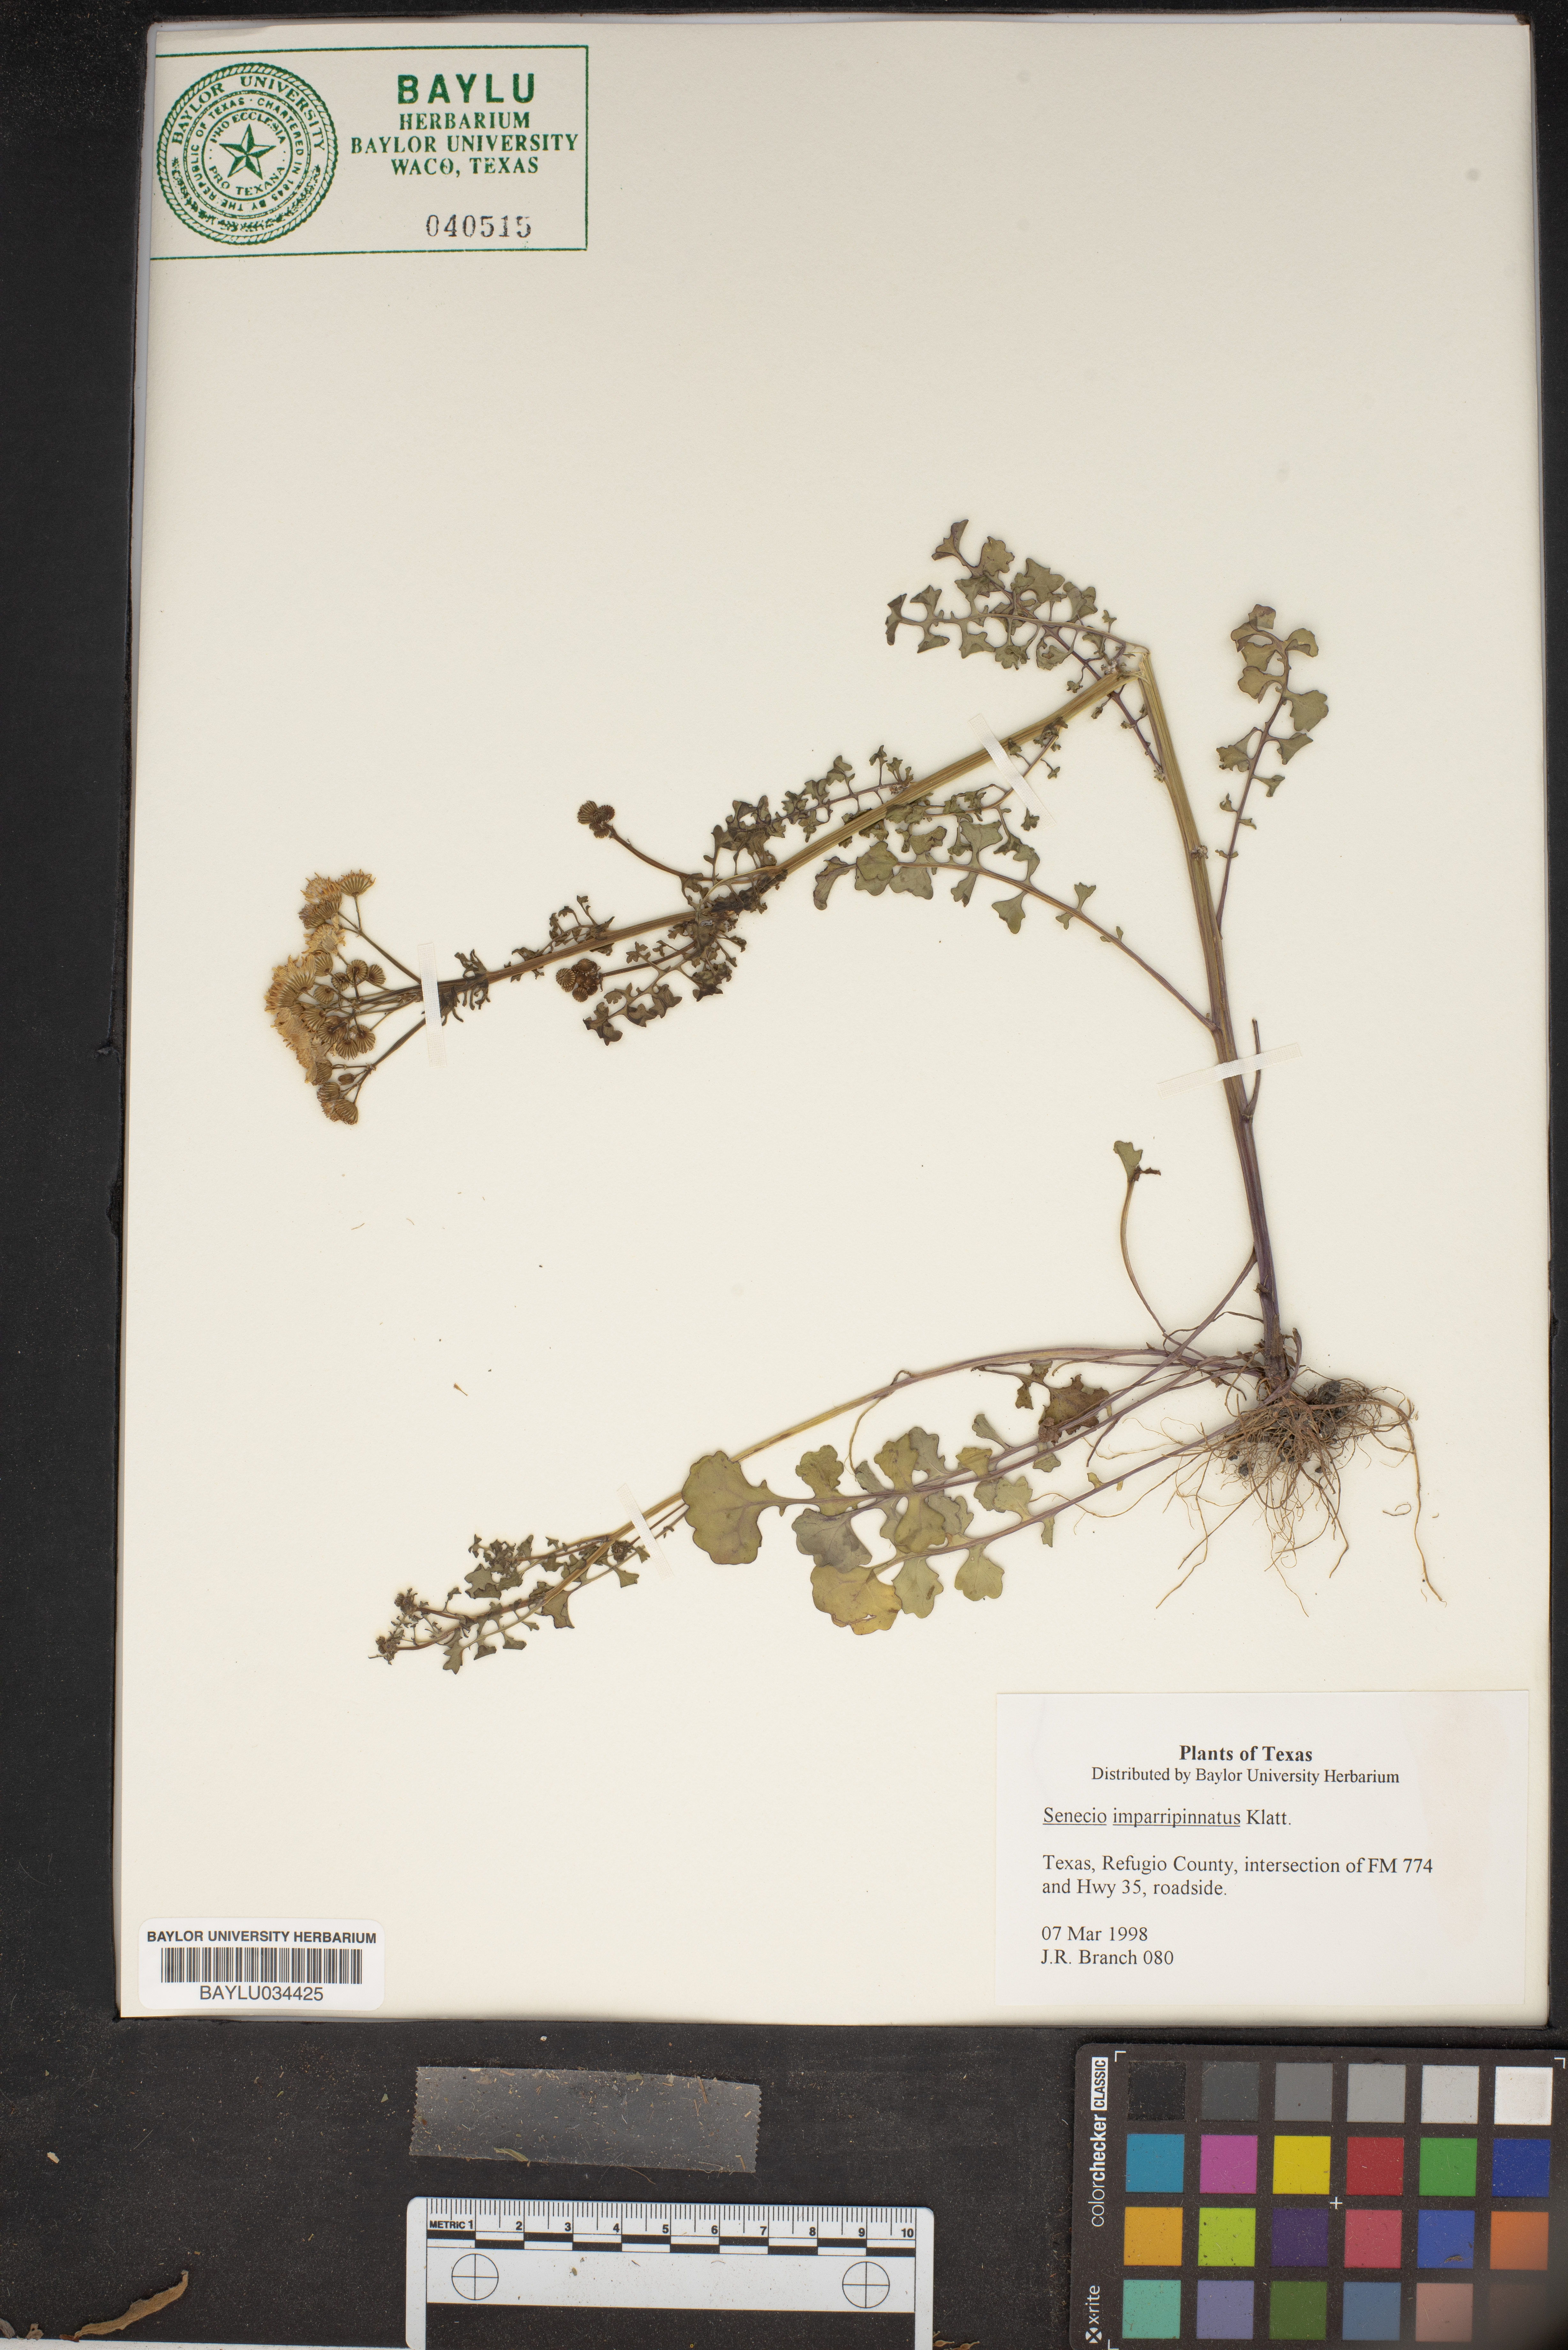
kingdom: Plantae
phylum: Tracheophyta
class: Magnoliopsida
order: Asterales
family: Asteraceae
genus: Packera
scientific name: Packera tampicana
